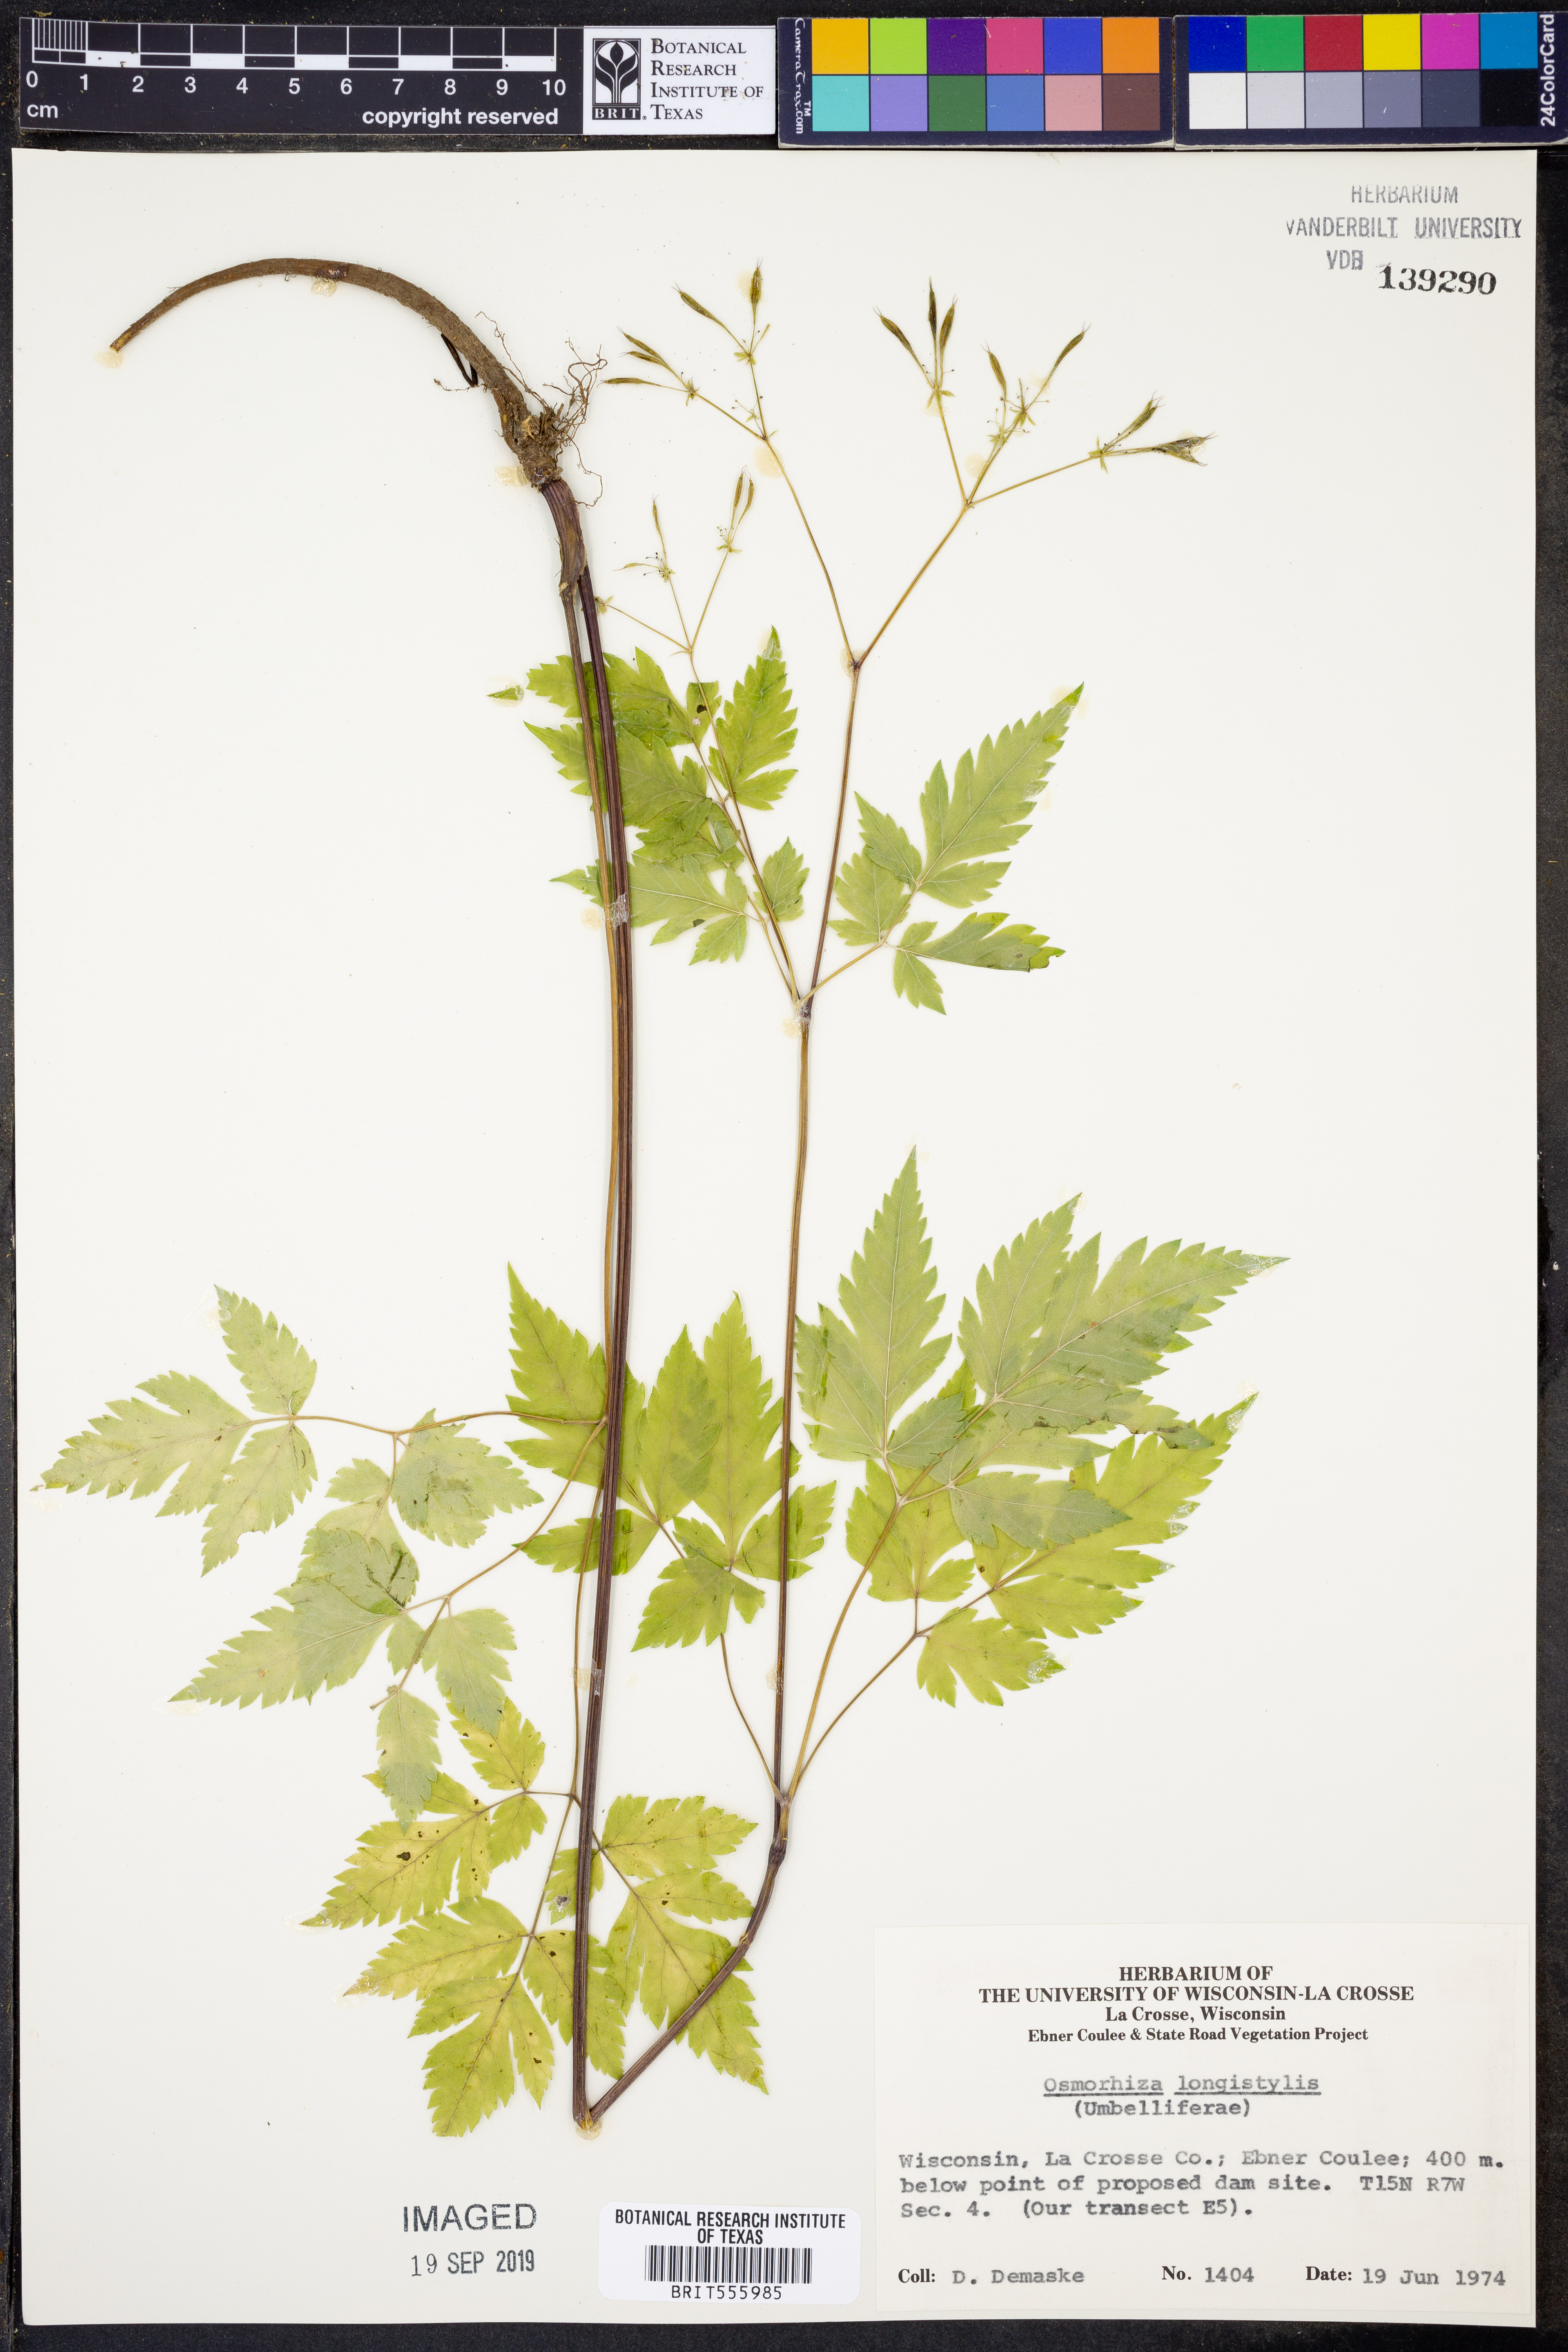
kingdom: Plantae
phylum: Tracheophyta
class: Magnoliopsida
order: Apiales
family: Apiaceae
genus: Osmorhiza
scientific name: Osmorhiza longistylis
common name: Smooth sweet cicely
